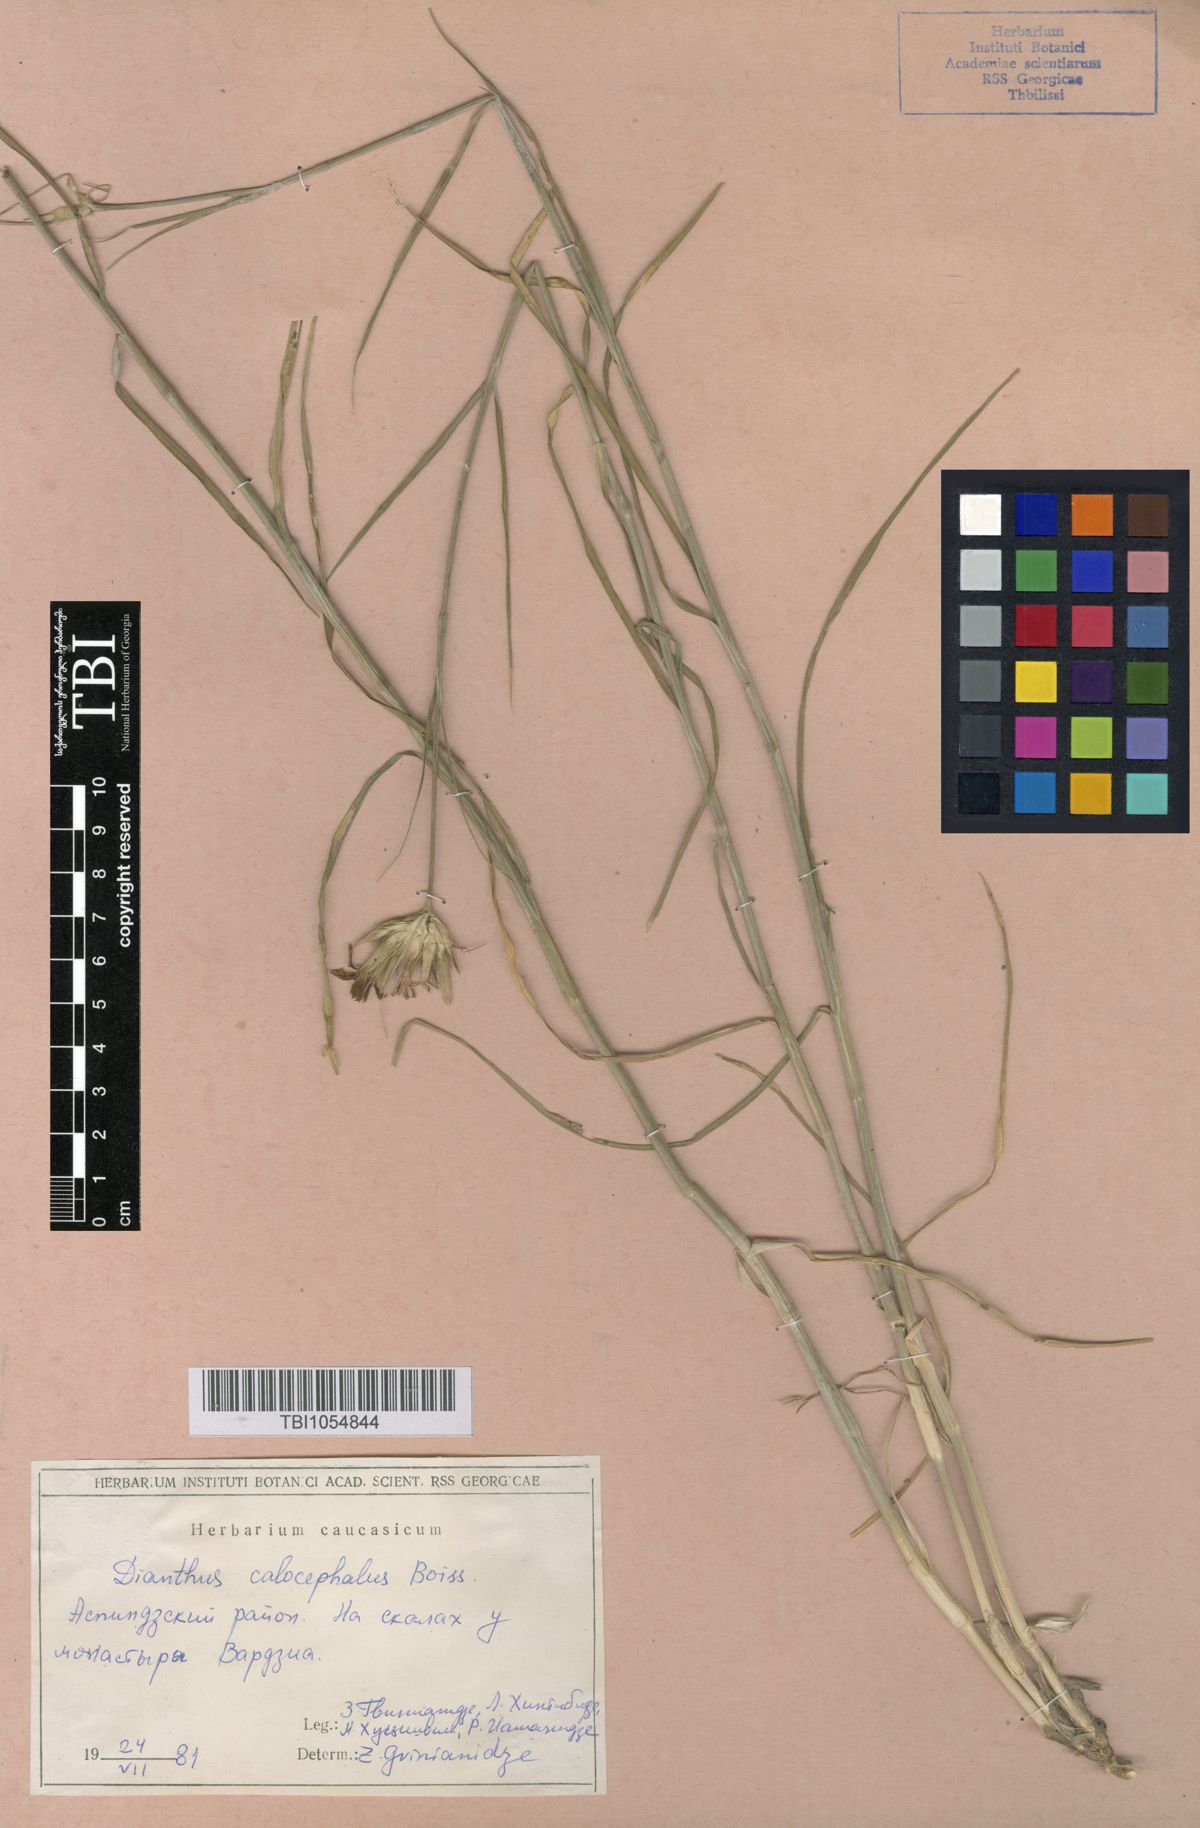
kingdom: Plantae
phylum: Tracheophyta
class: Magnoliopsida
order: Caryophyllales
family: Caryophyllaceae
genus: Dianthus
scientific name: Dianthus cruentus
